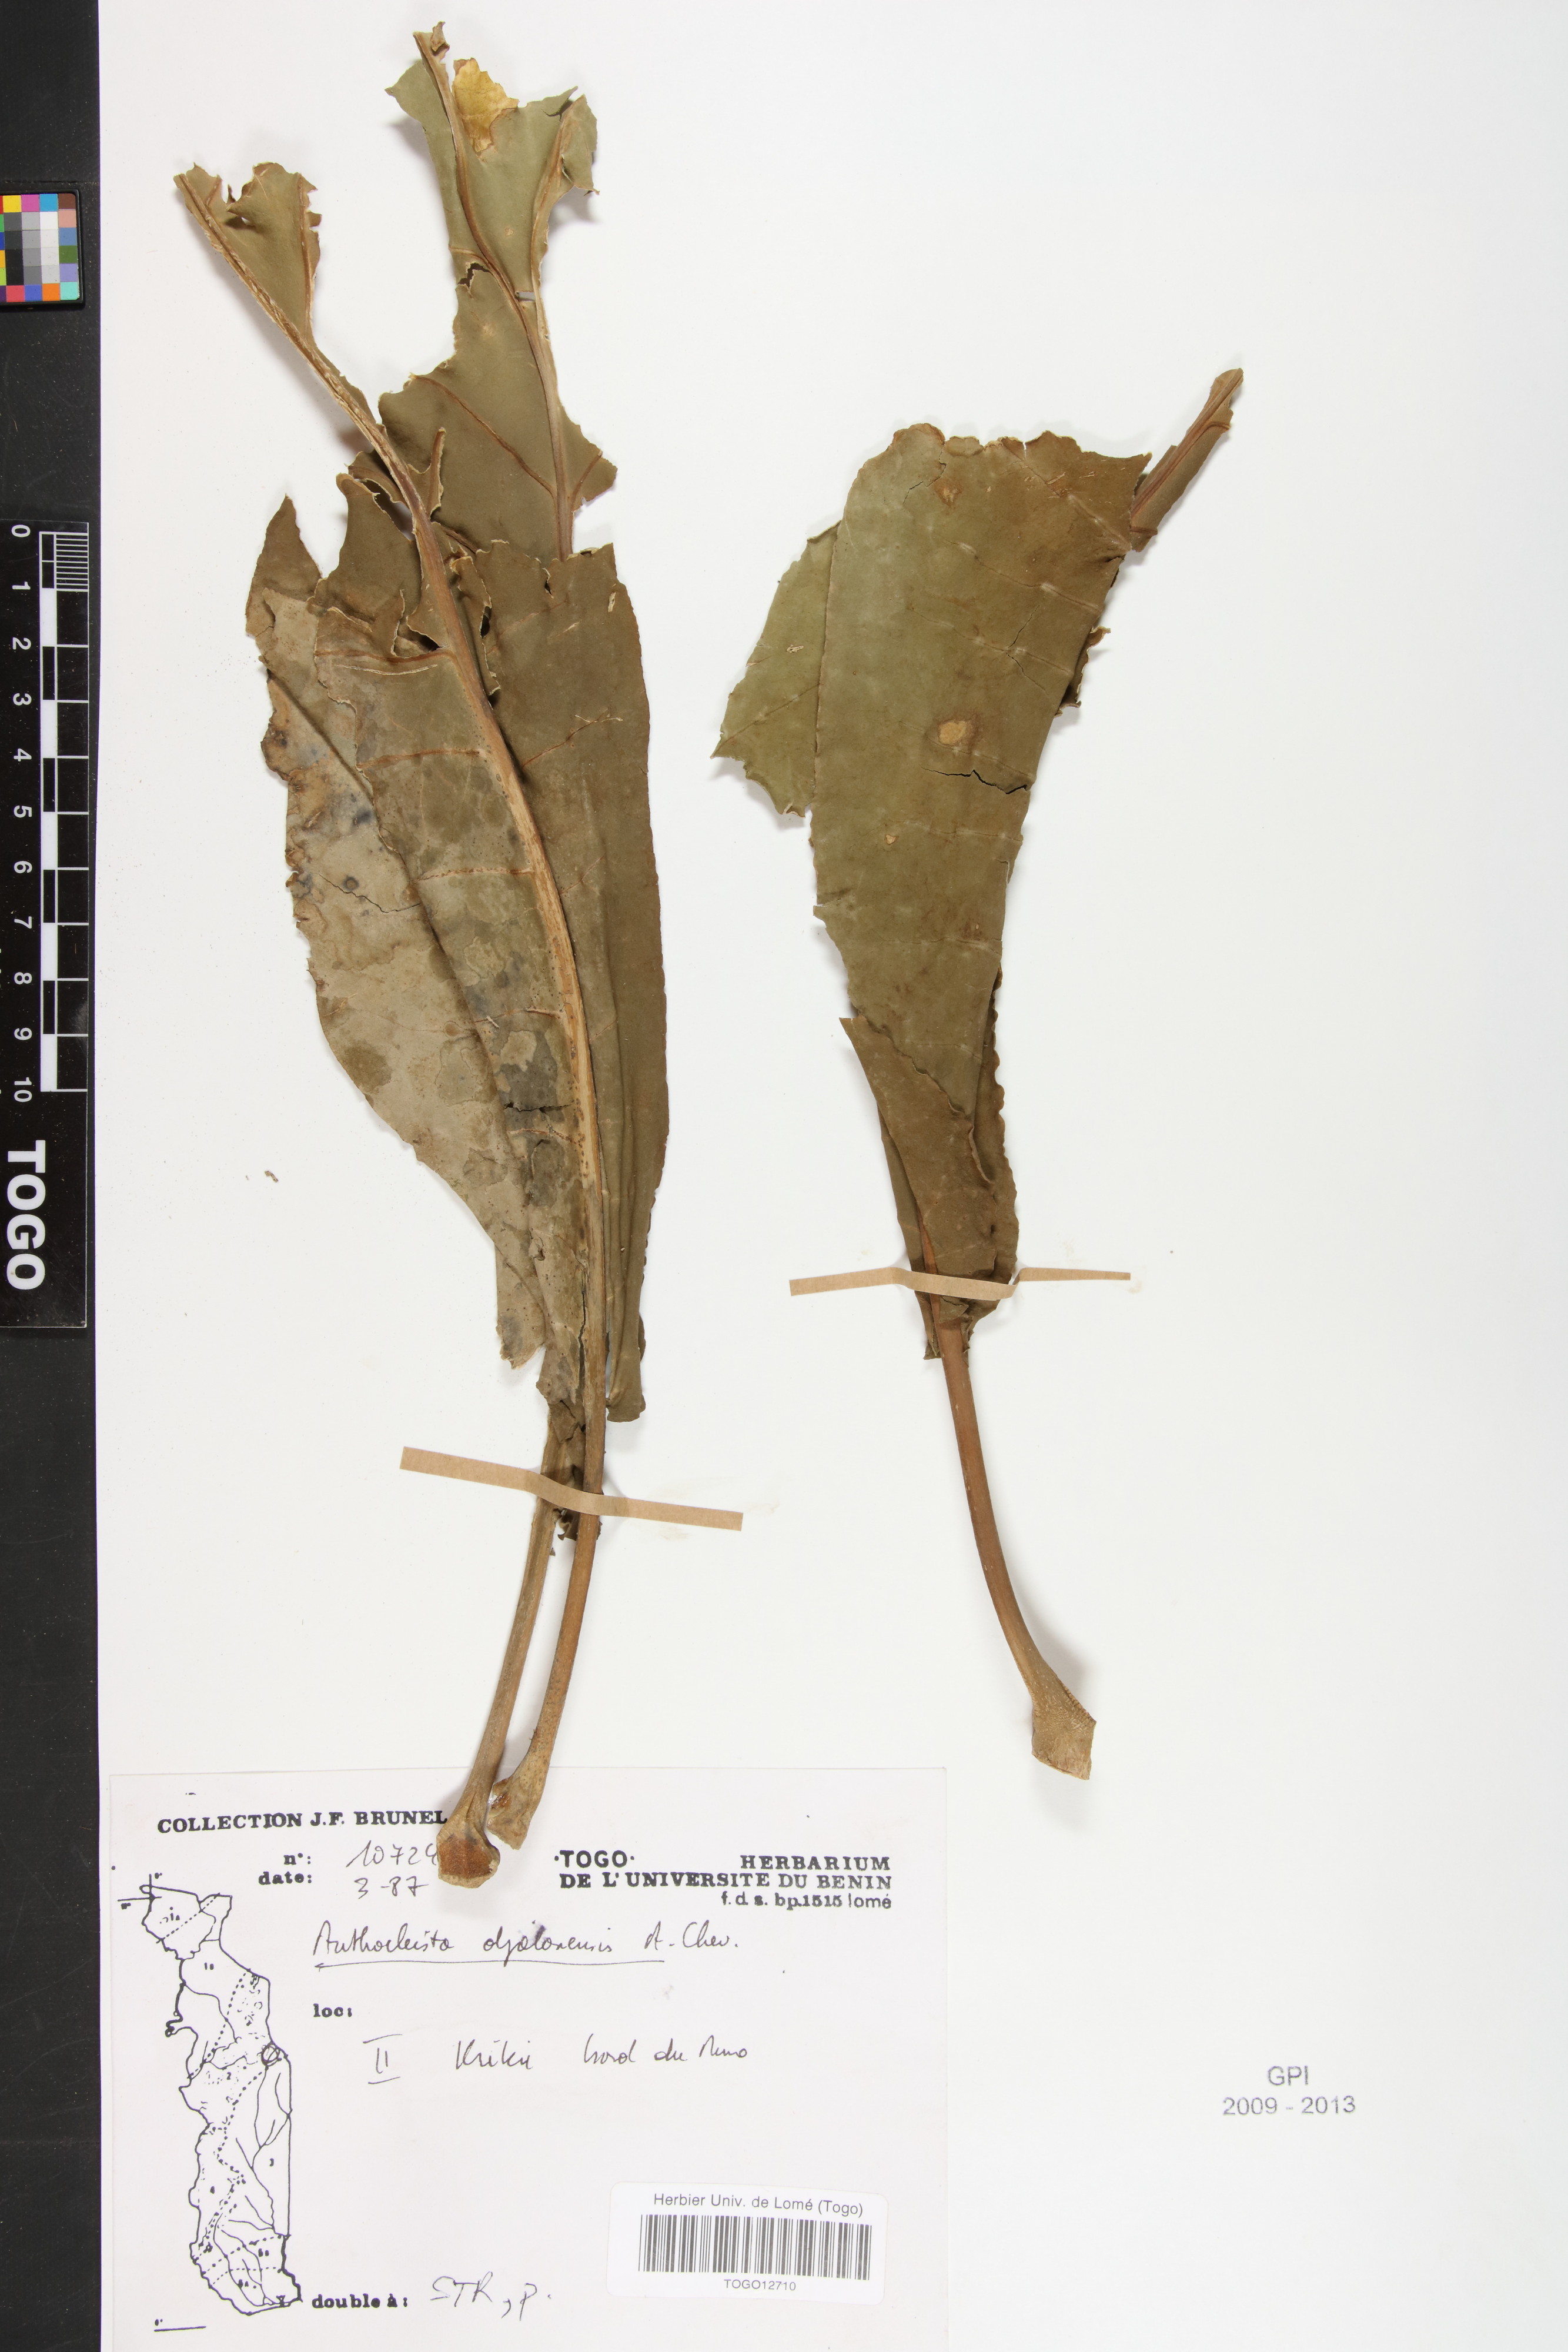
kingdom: Plantae
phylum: Tracheophyta
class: Magnoliopsida
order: Gentianales
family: Gentianaceae
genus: Anthocleista
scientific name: Anthocleista djalonensis
